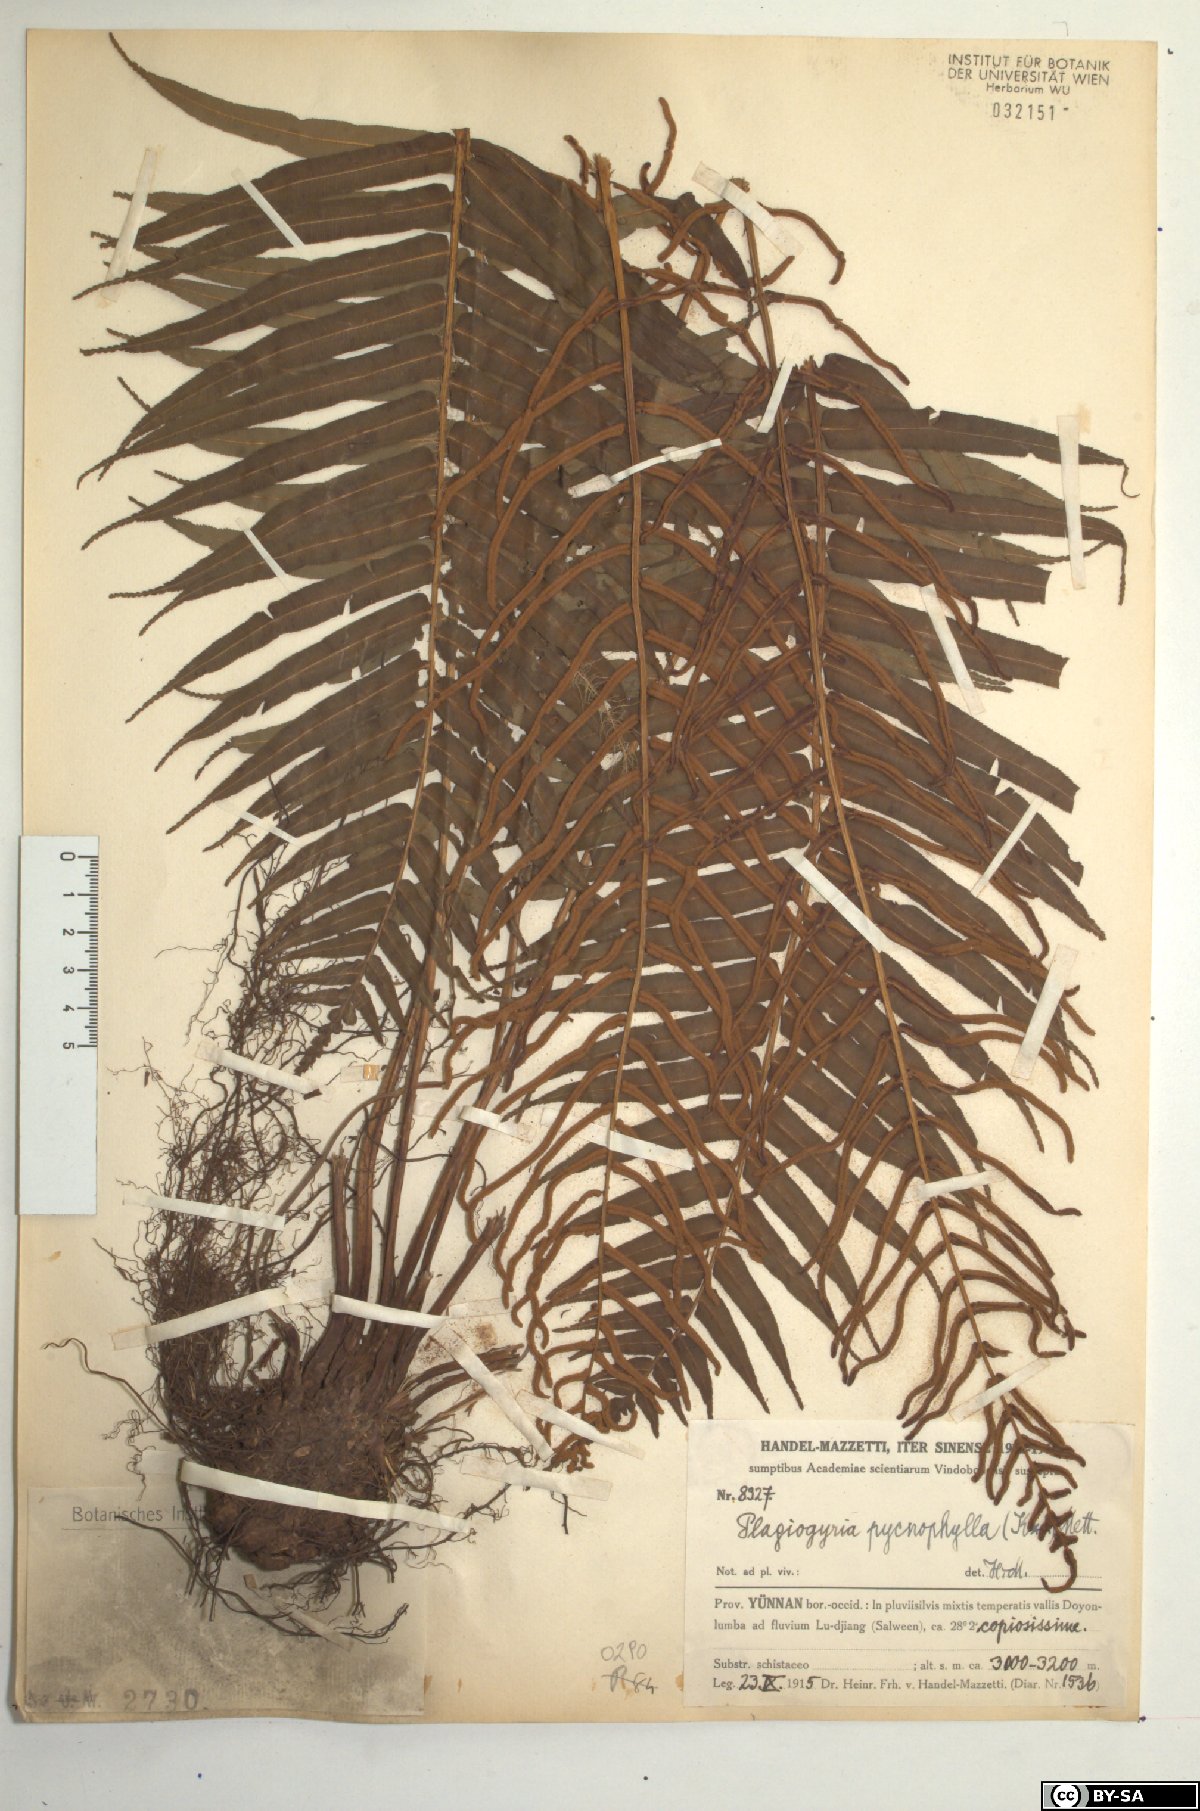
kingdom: Plantae
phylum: Tracheophyta
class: Polypodiopsida
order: Cyatheales
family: Plagiogyriaceae
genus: Plagiogyria
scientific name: Plagiogyria pycnophylla
